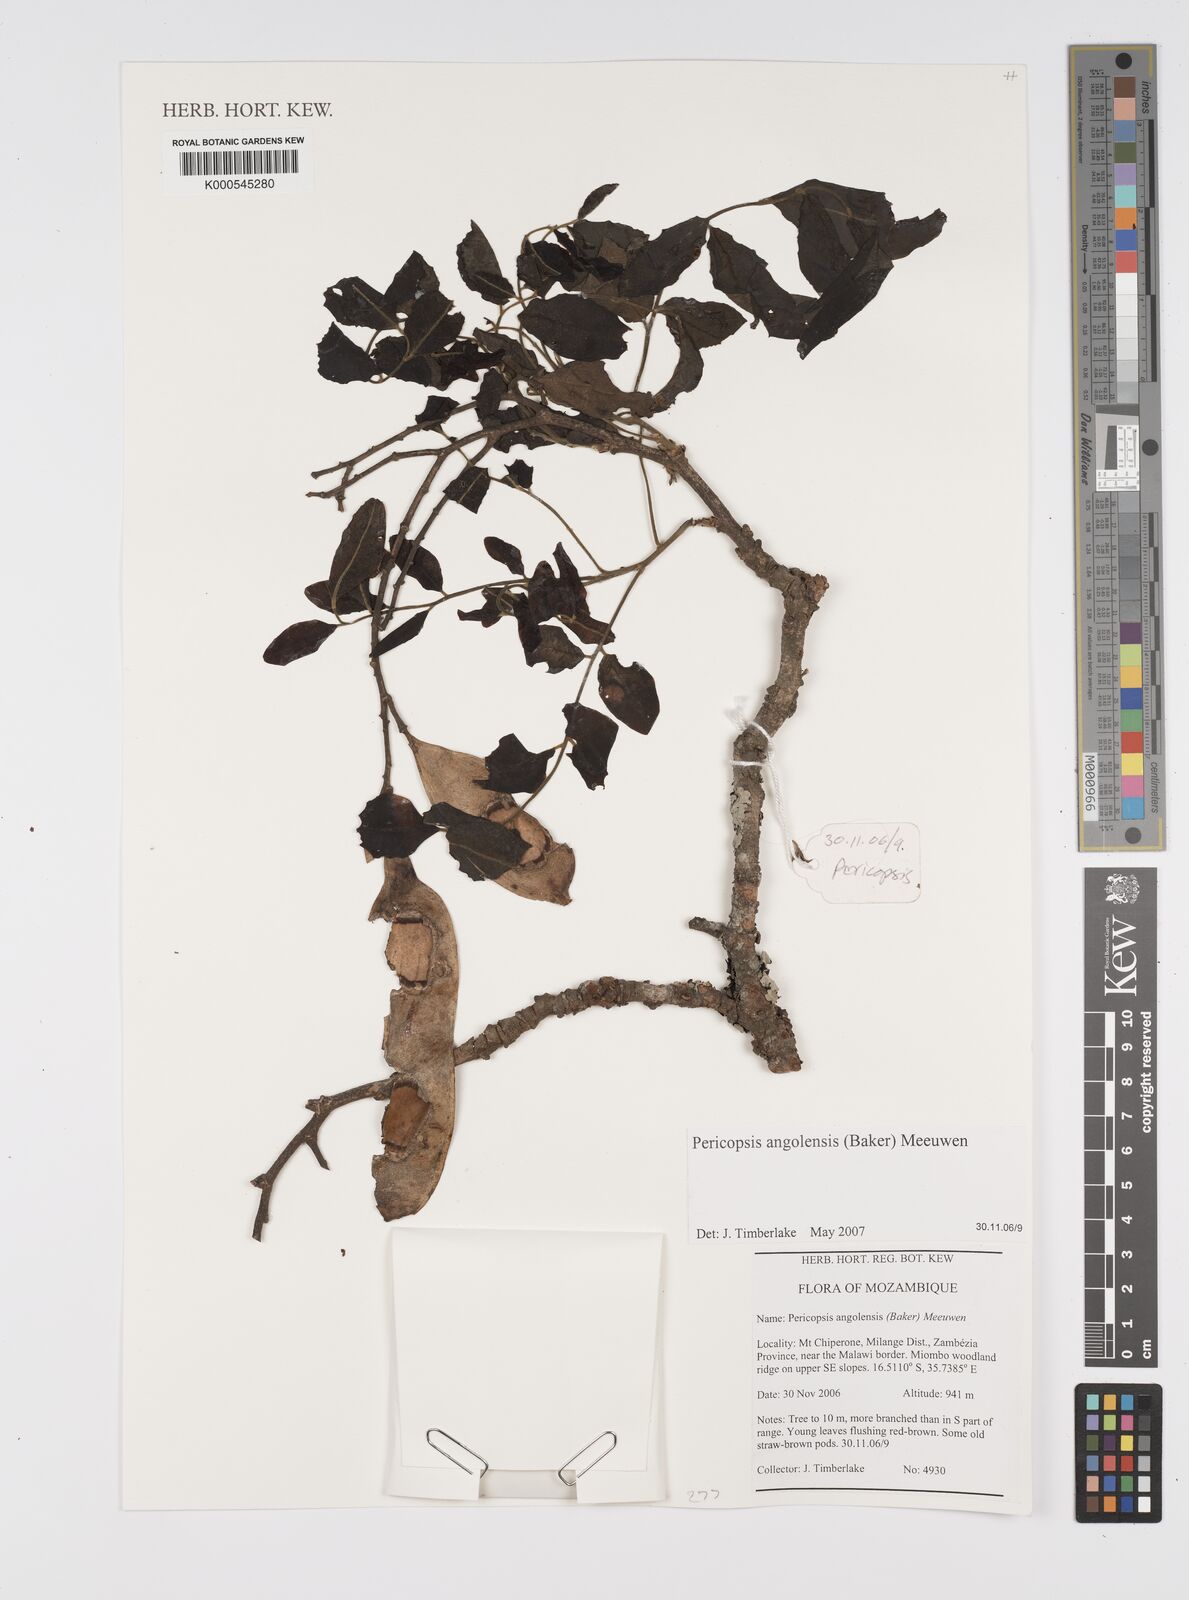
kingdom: Plantae
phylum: Tracheophyta
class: Magnoliopsida
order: Fabales
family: Fabaceae
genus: Pericopsis
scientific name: Pericopsis angolensis
